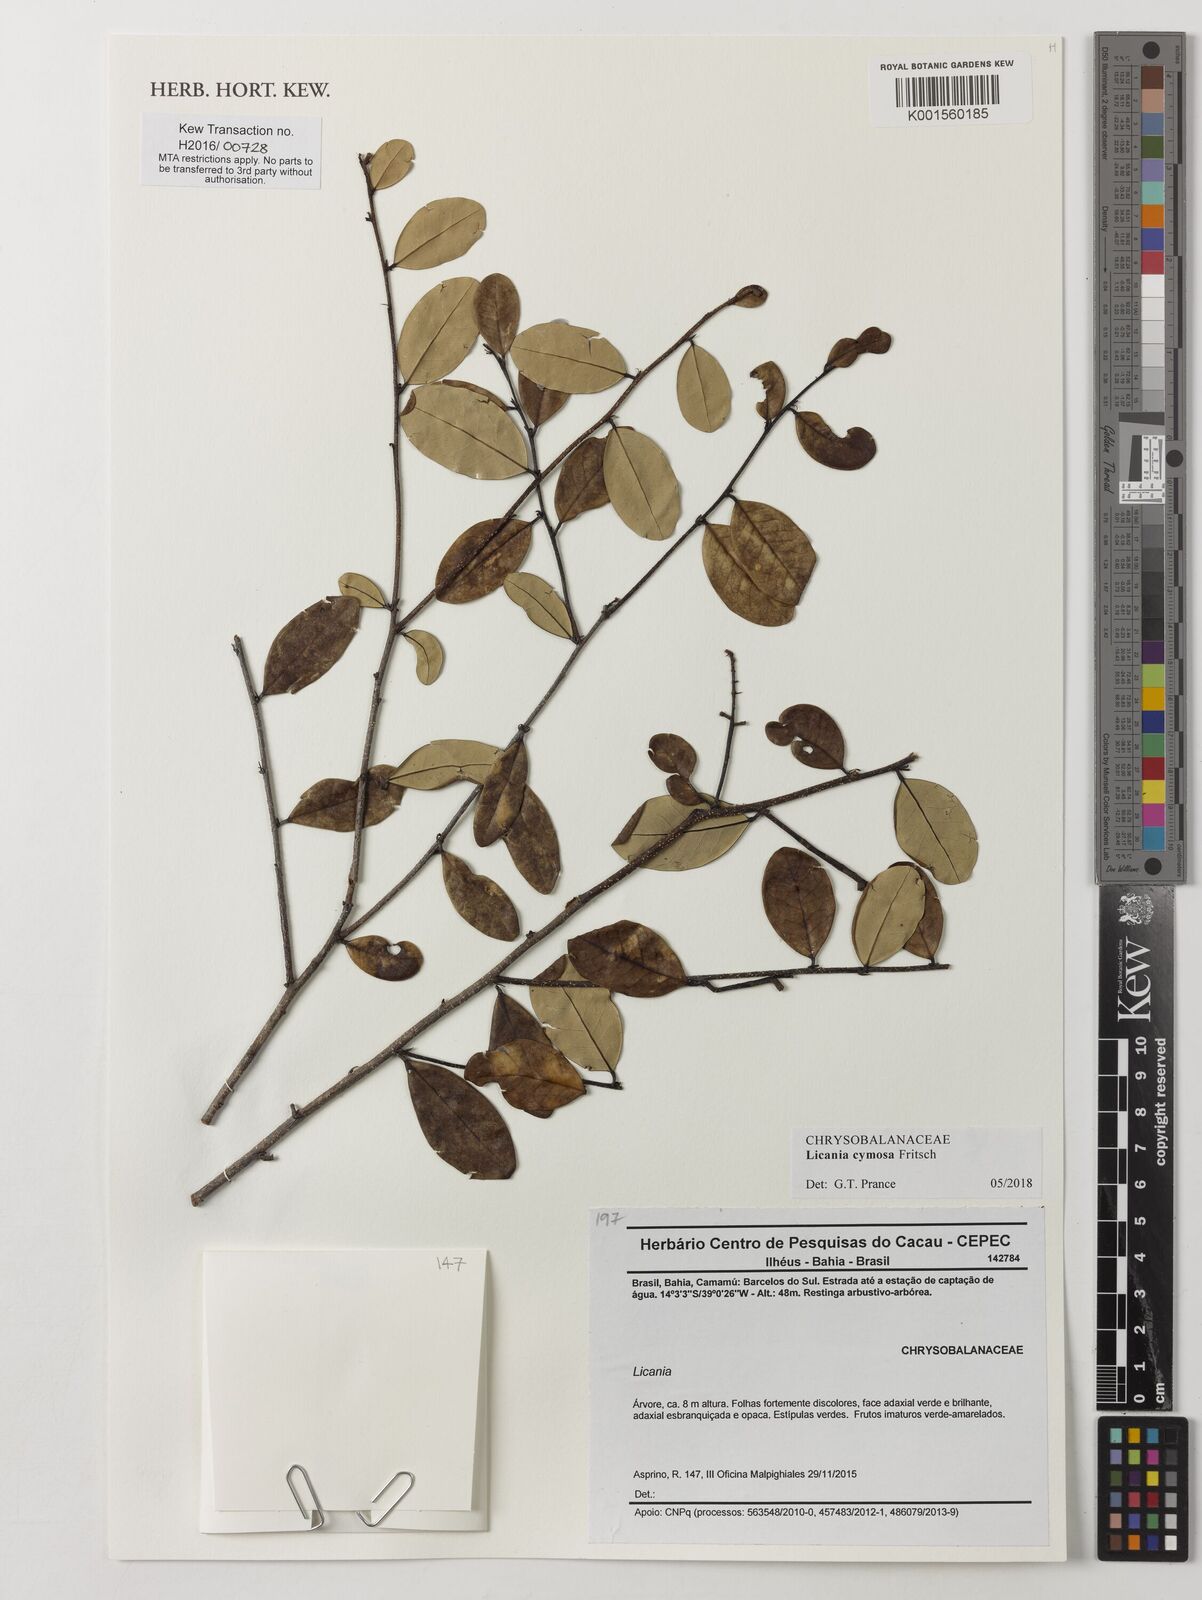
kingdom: Plantae
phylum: Tracheophyta
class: Magnoliopsida
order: Malpighiales
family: Chrysobalanaceae
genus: Licania
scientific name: Licania cymosa
